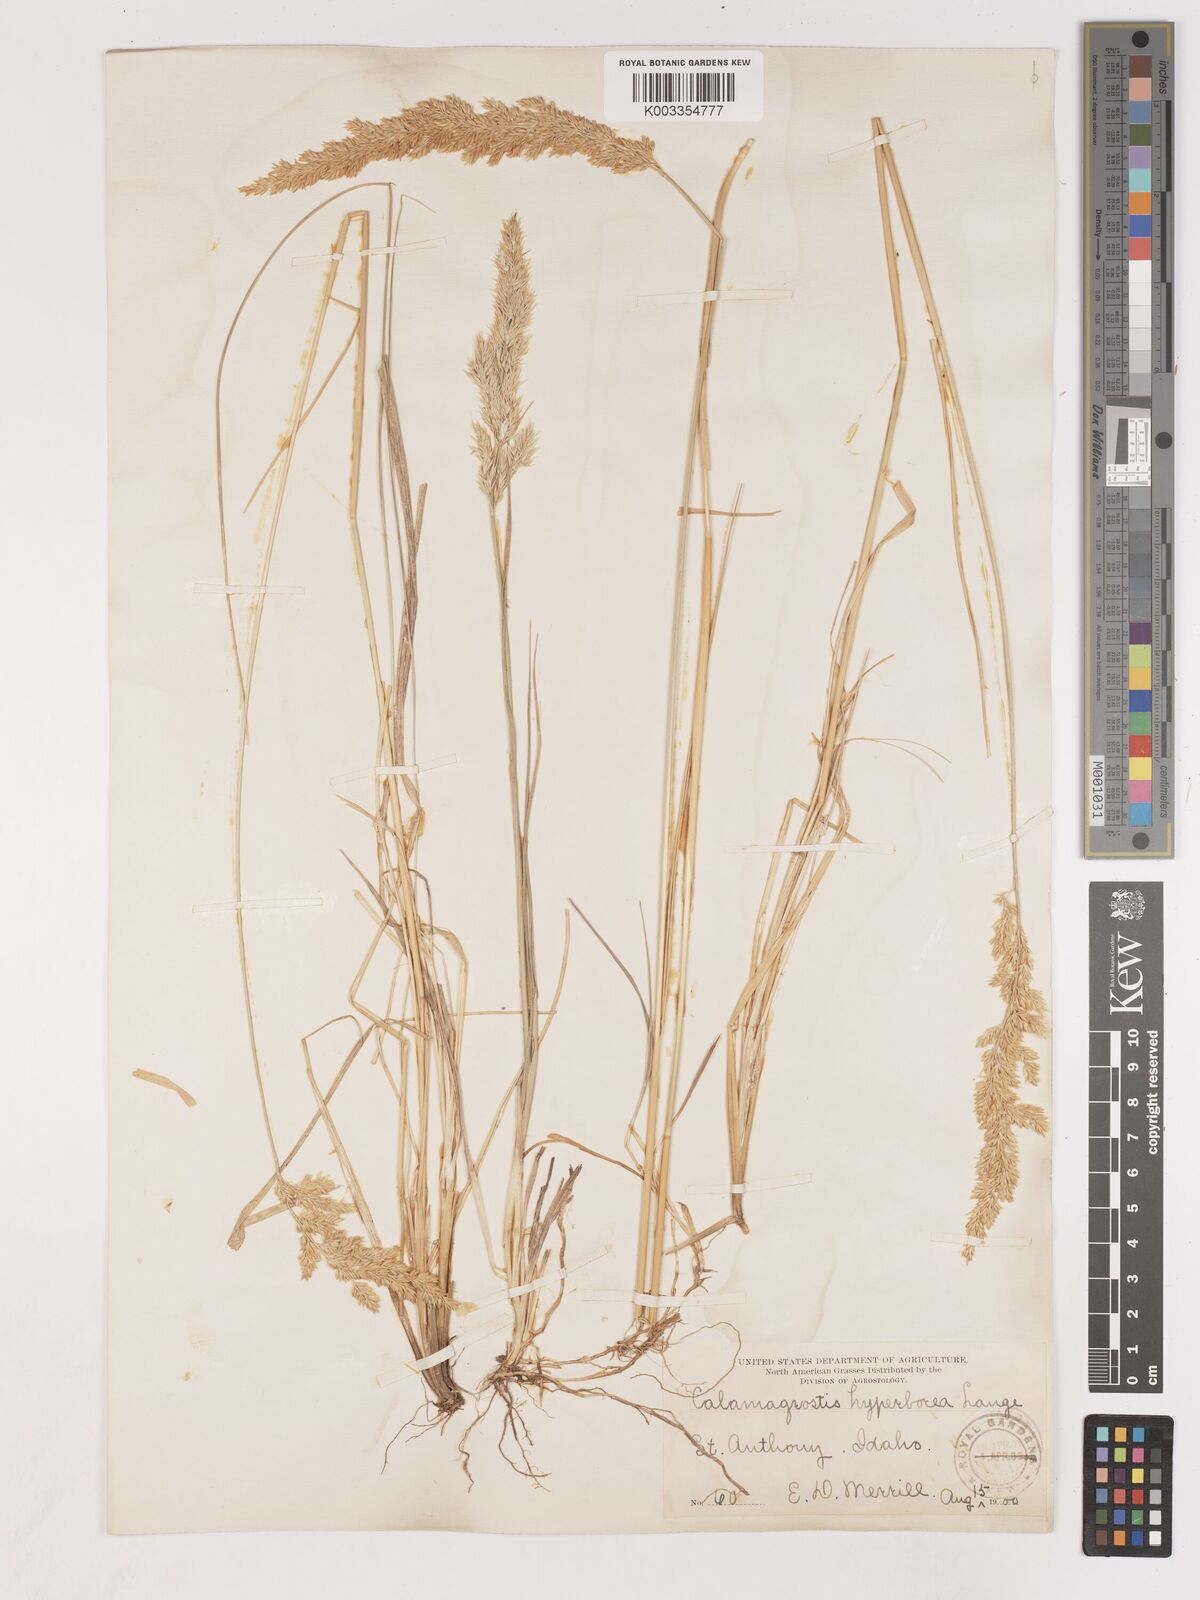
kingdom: Plantae
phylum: Tracheophyta
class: Liliopsida
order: Poales
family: Poaceae
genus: Cinnagrostis
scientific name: Cinnagrostis recta
